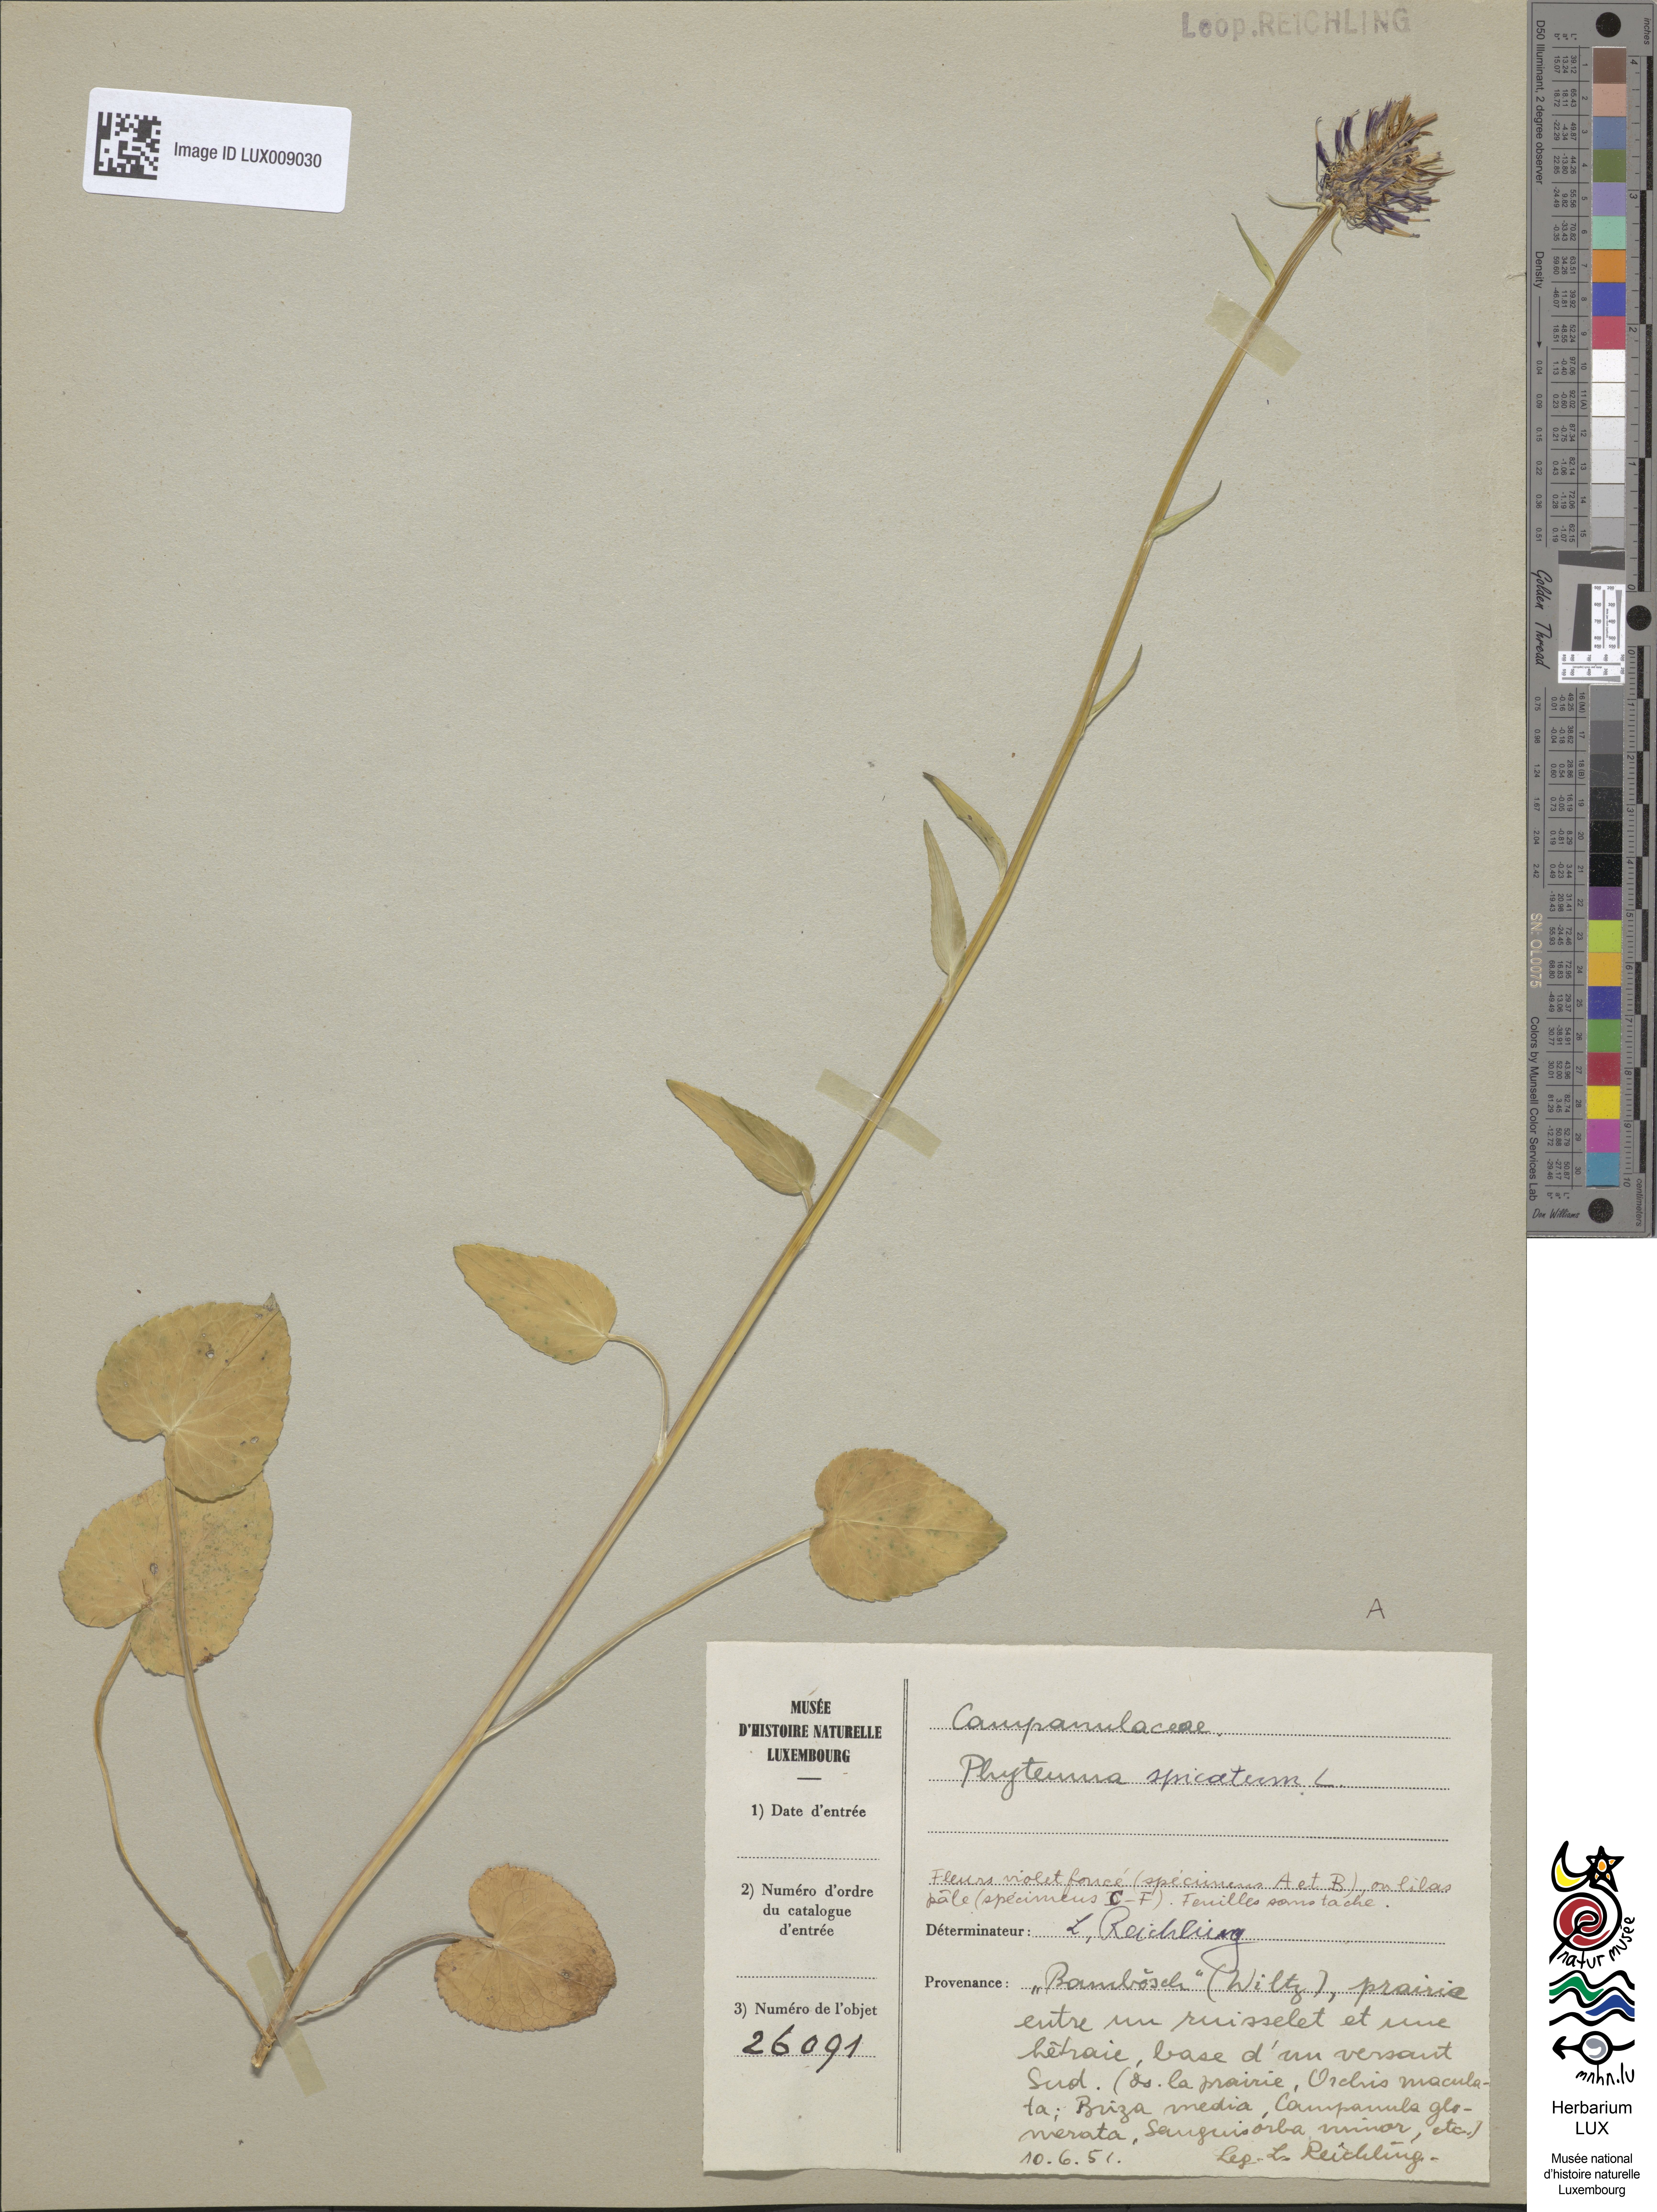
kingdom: Plantae
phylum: Tracheophyta
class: Magnoliopsida
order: Asterales
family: Campanulaceae
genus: Phyteuma
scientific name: Phyteuma spicatum
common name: Spiked rampion
